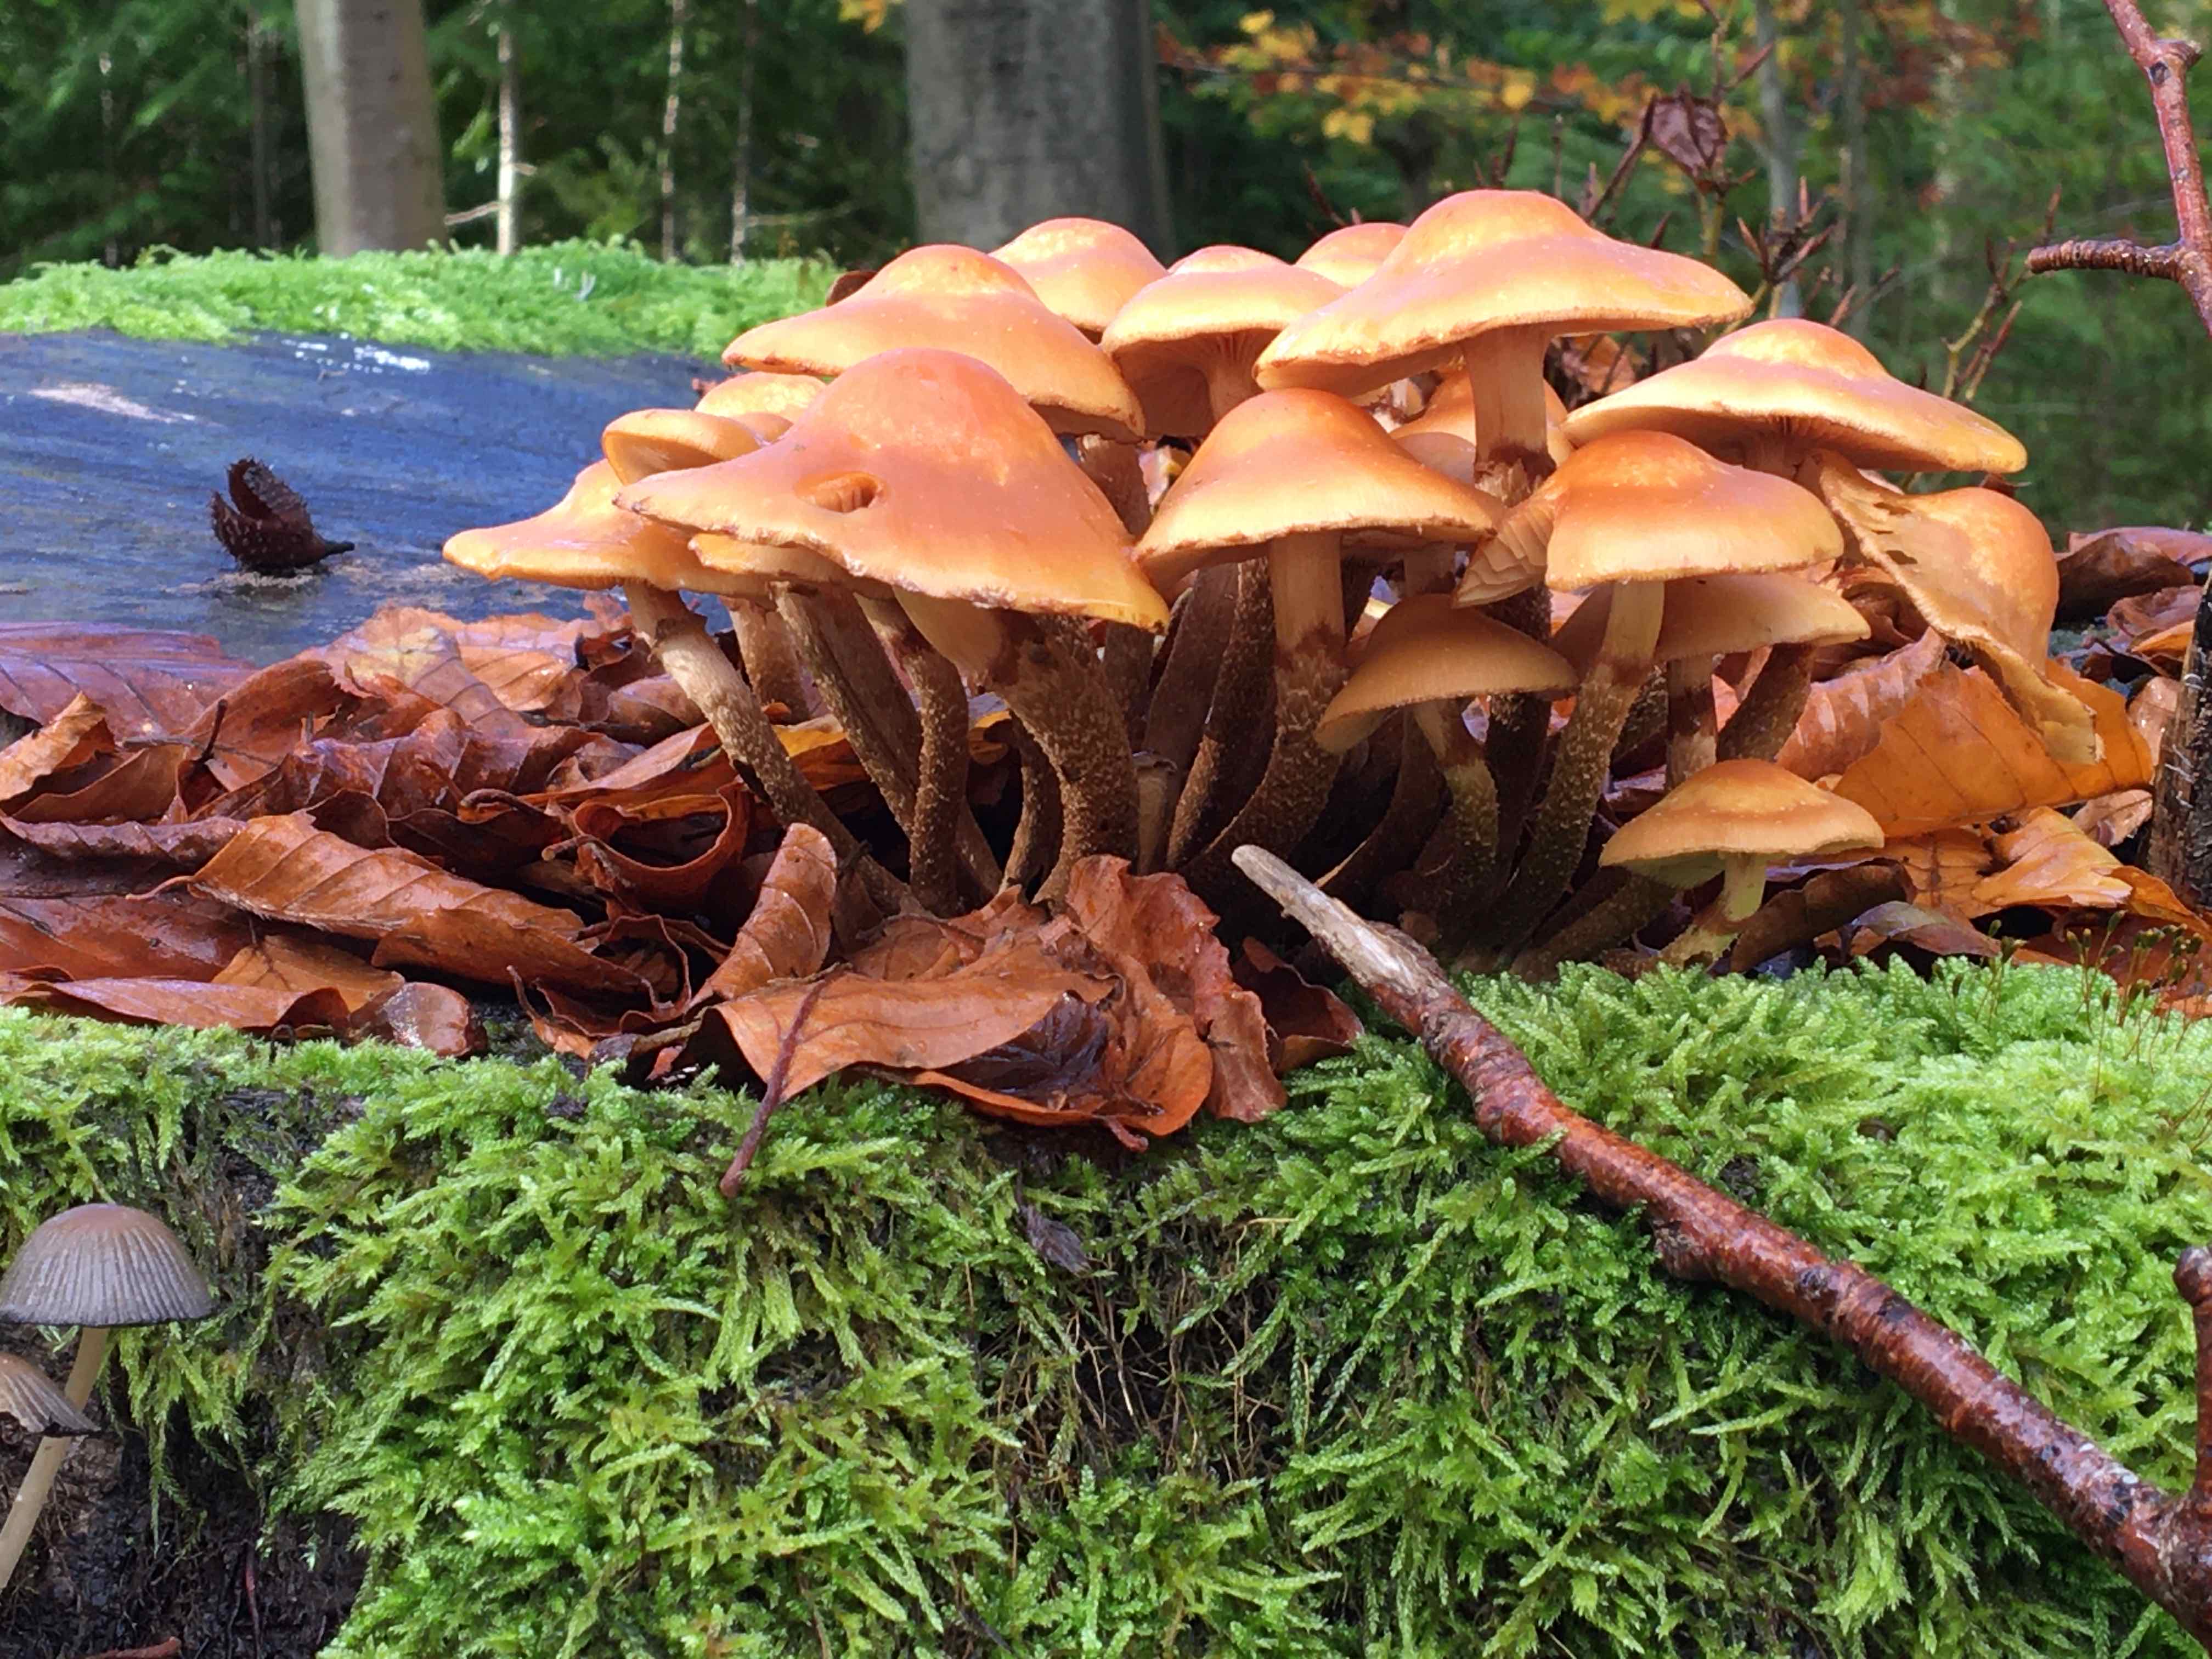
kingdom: Fungi
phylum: Basidiomycota
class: Agaricomycetes
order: Agaricales
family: Strophariaceae
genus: Kuehneromyces
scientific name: Kuehneromyces mutabilis
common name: foranderlig skælhat
